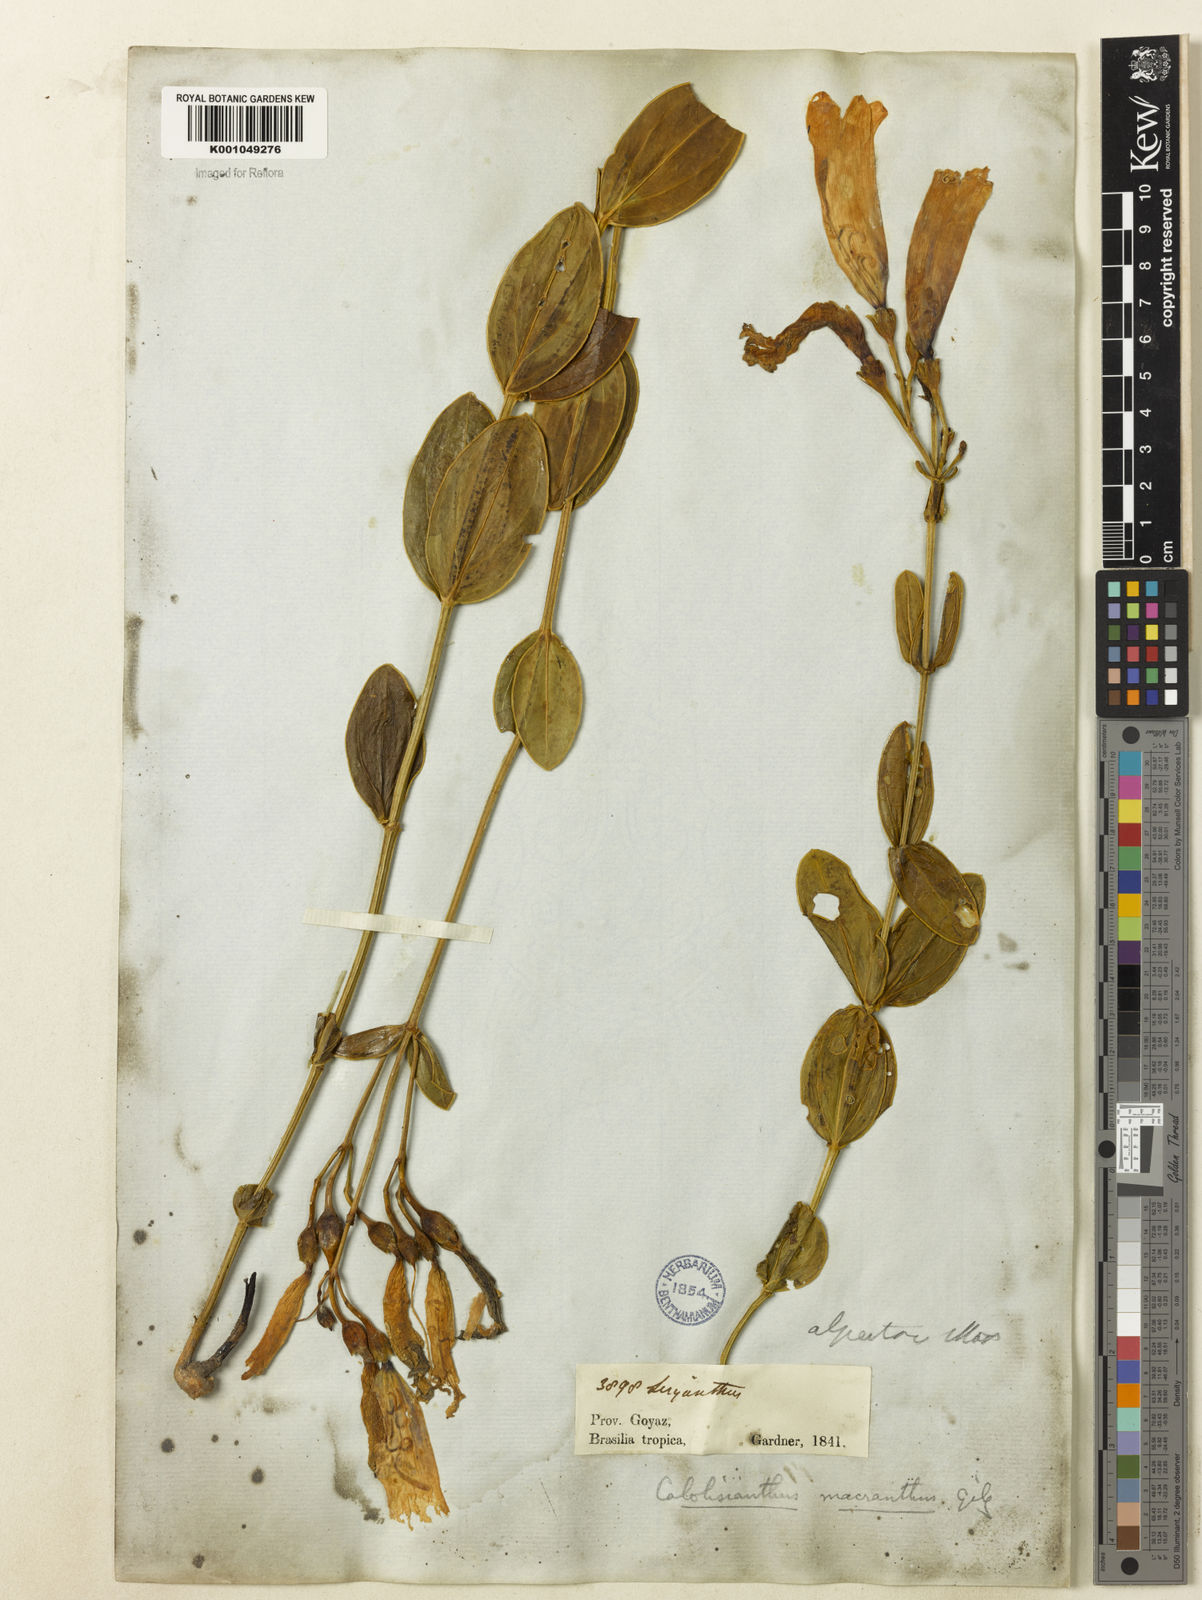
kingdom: Plantae
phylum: Tracheophyta
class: Magnoliopsida
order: Gentianales
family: Gentianaceae
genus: Calolisianthus
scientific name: Calolisianthus pendulus
